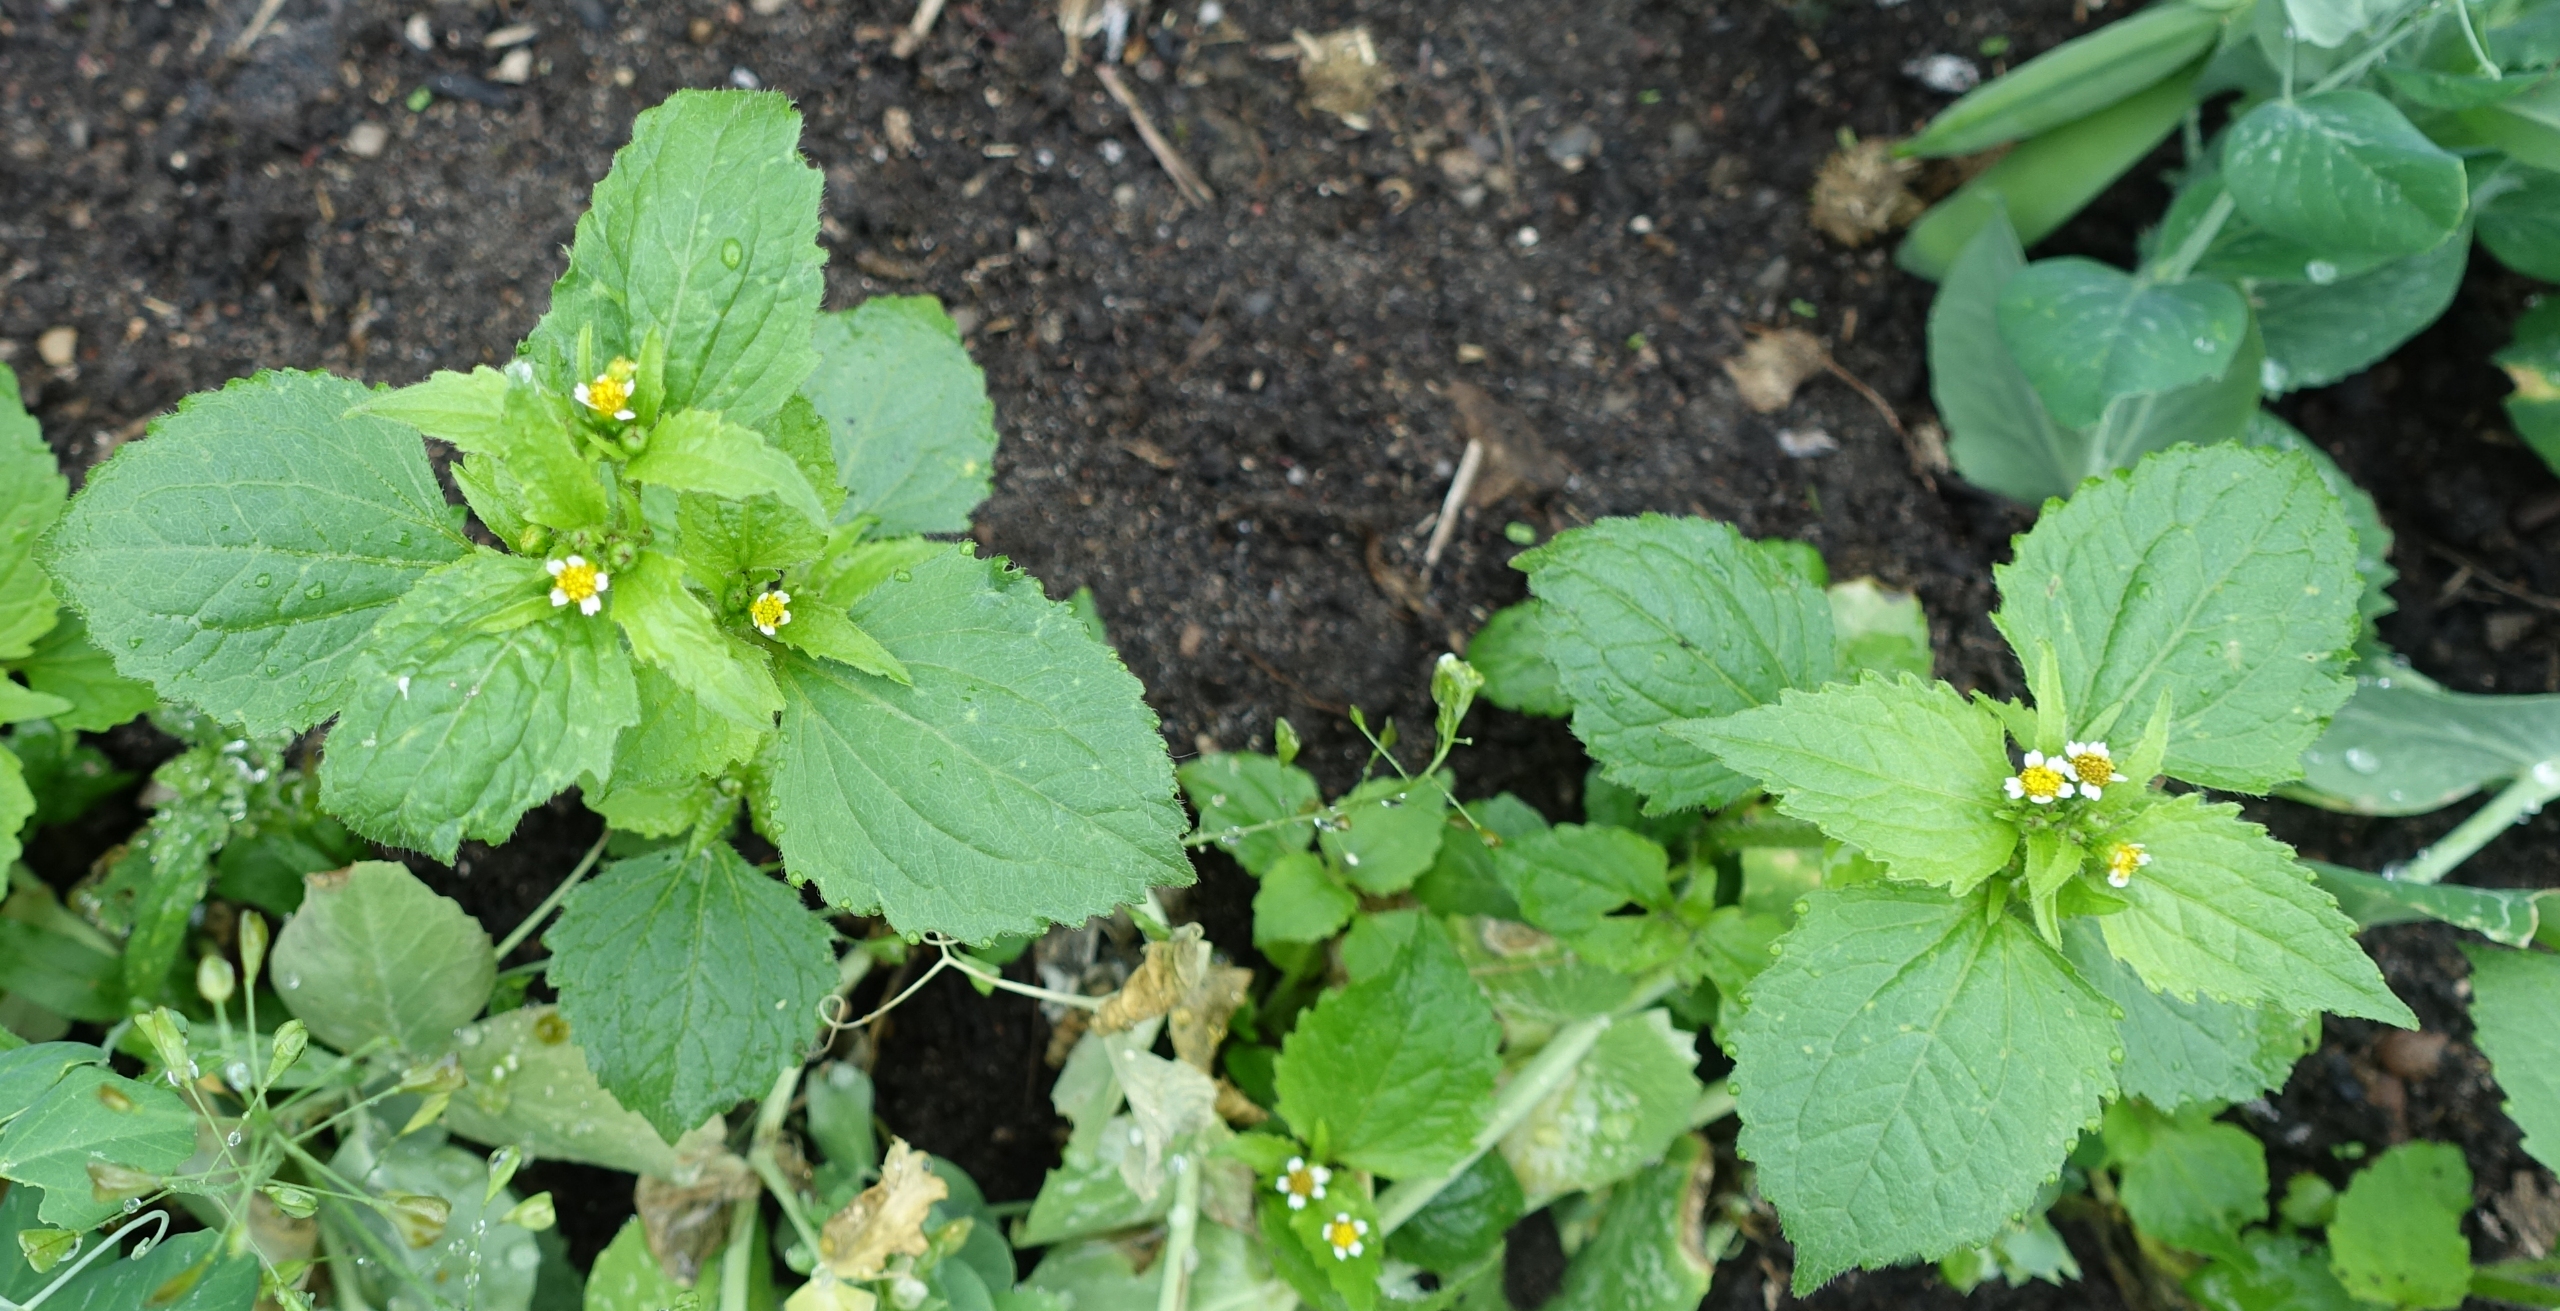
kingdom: Plantae
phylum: Tracheophyta
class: Magnoliopsida
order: Asterales
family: Asteraceae
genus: Galinsoga
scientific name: Galinsoga quadriradiata
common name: Kirtel-kortstråle
